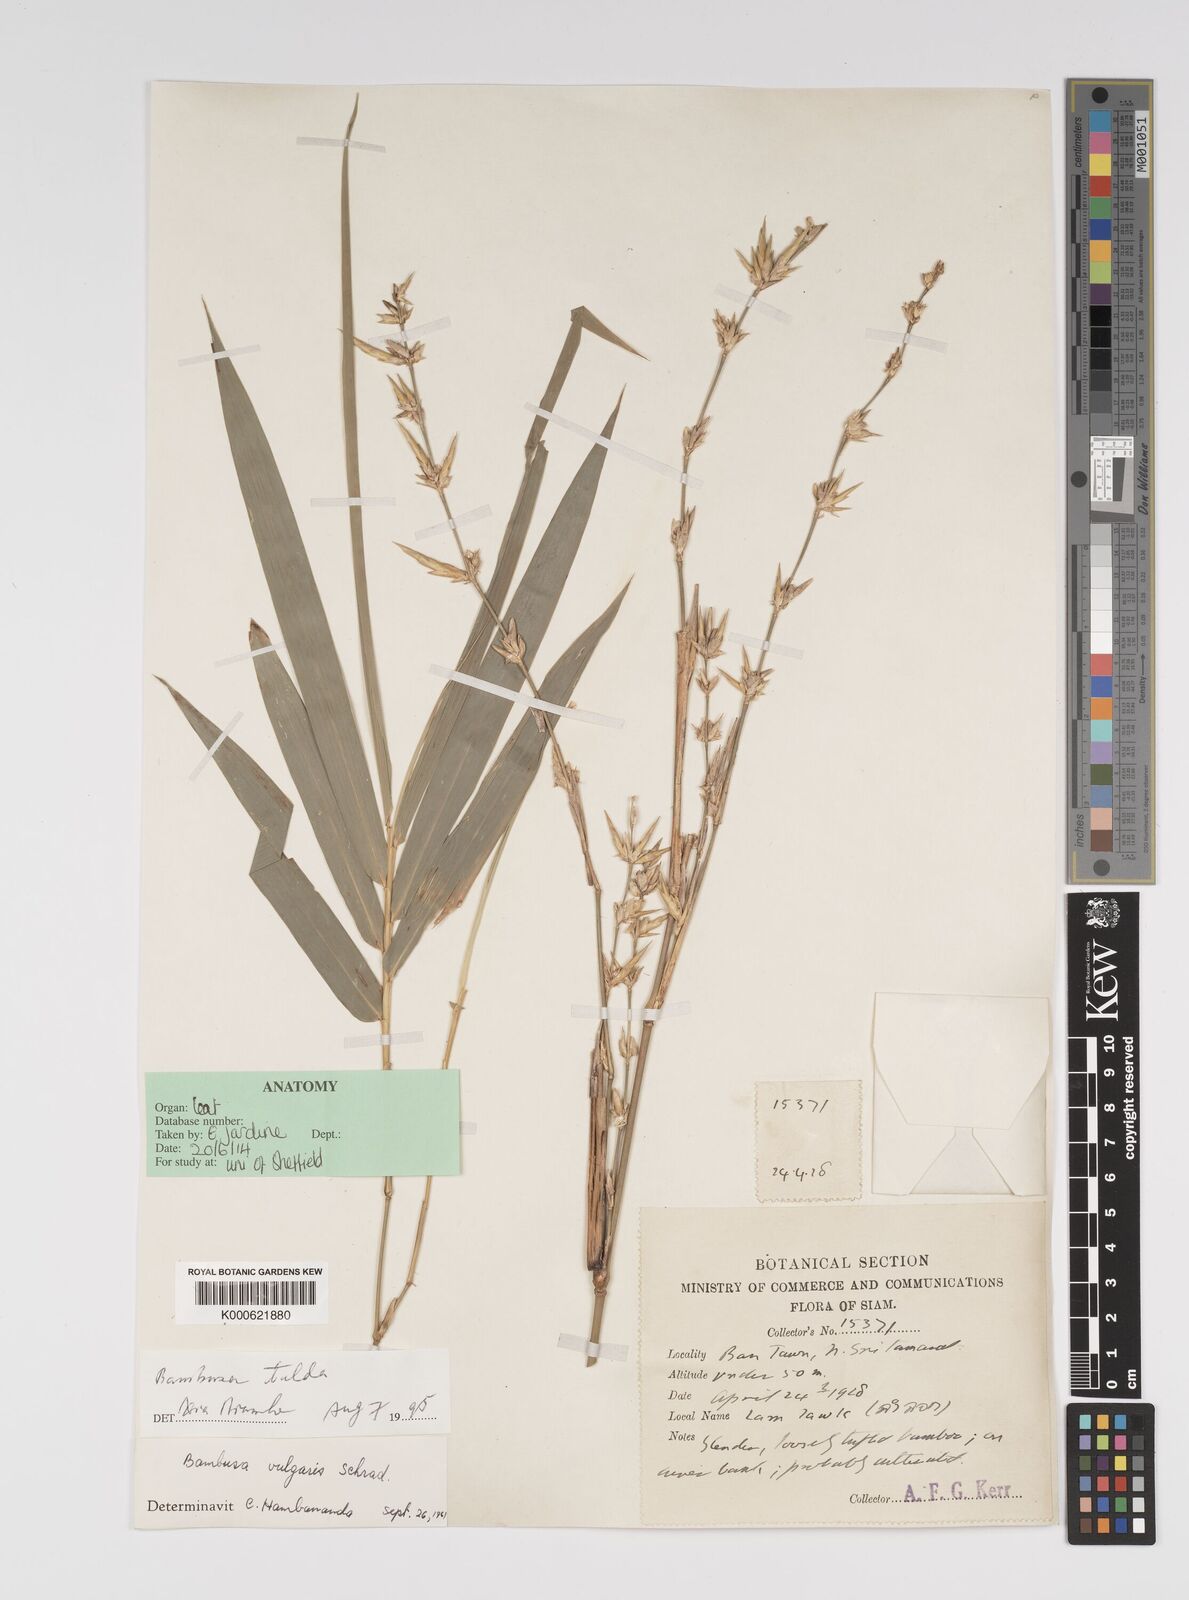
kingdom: Plantae
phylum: Tracheophyta
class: Liliopsida
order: Poales
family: Poaceae
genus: Bambusa
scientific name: Bambusa tulda
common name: Bengal bamboo
